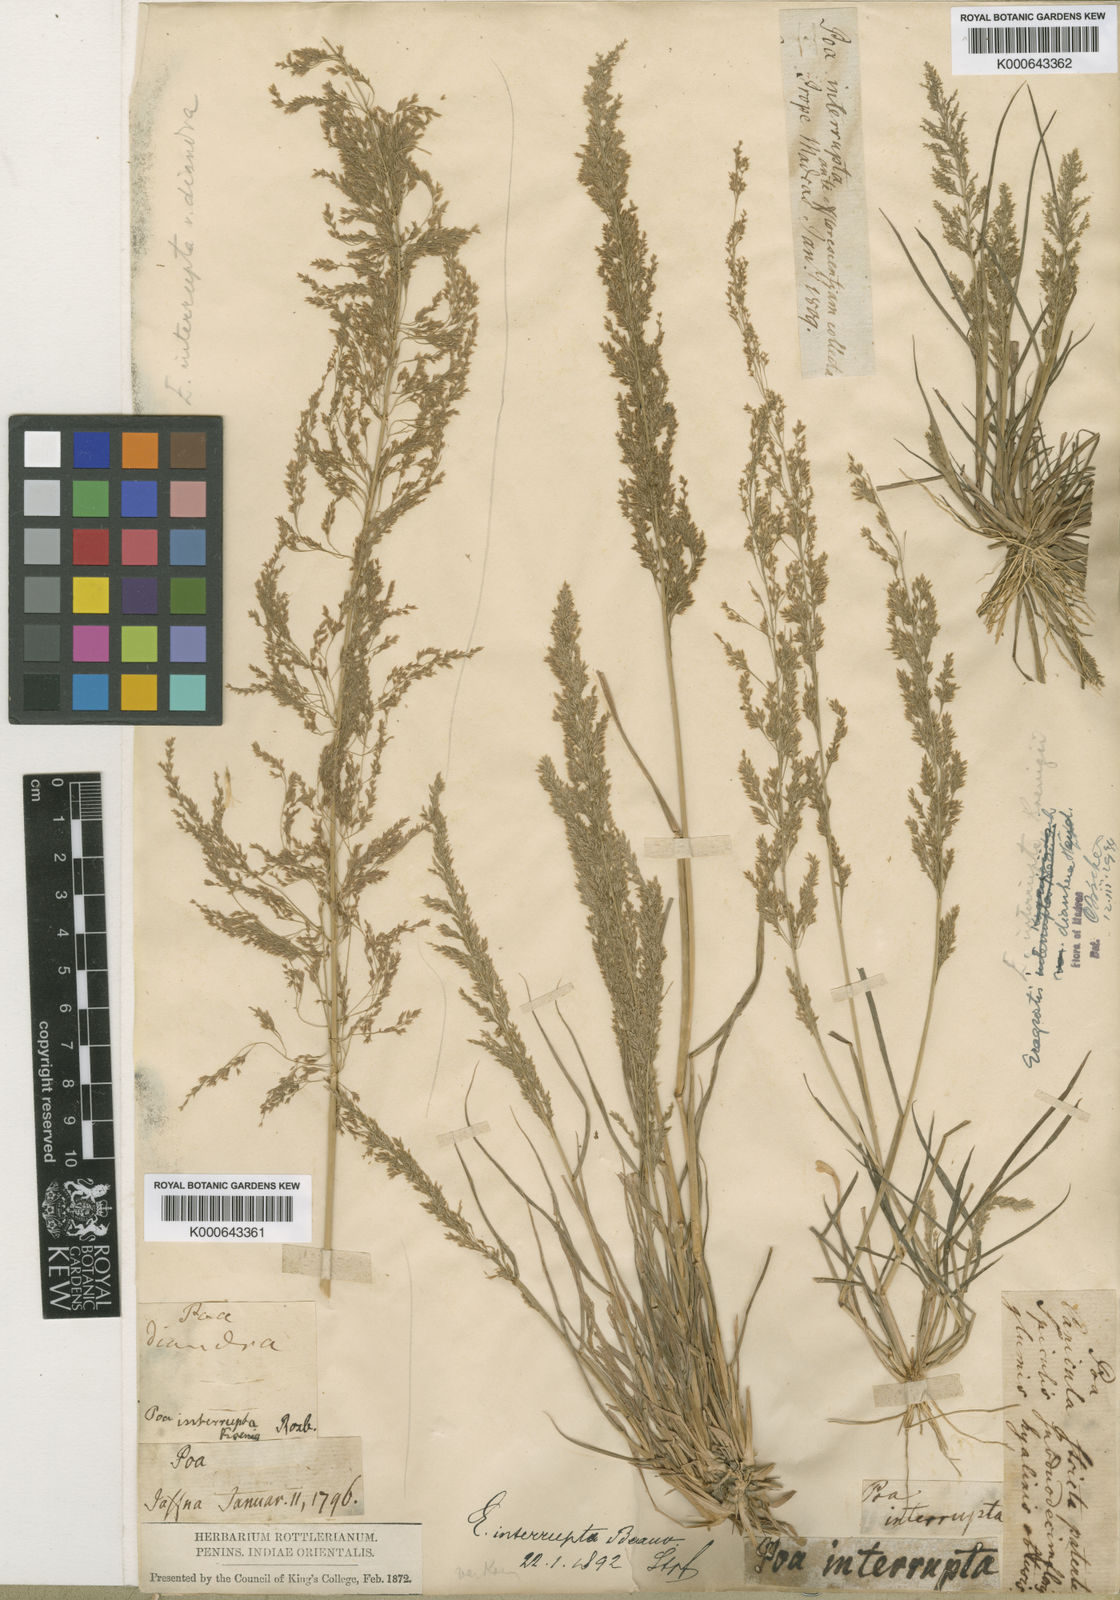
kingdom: Plantae
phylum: Tracheophyta
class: Liliopsida
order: Poales
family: Poaceae
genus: Eragrostis
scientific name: Eragrostis japonica
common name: Pond lovegrass
